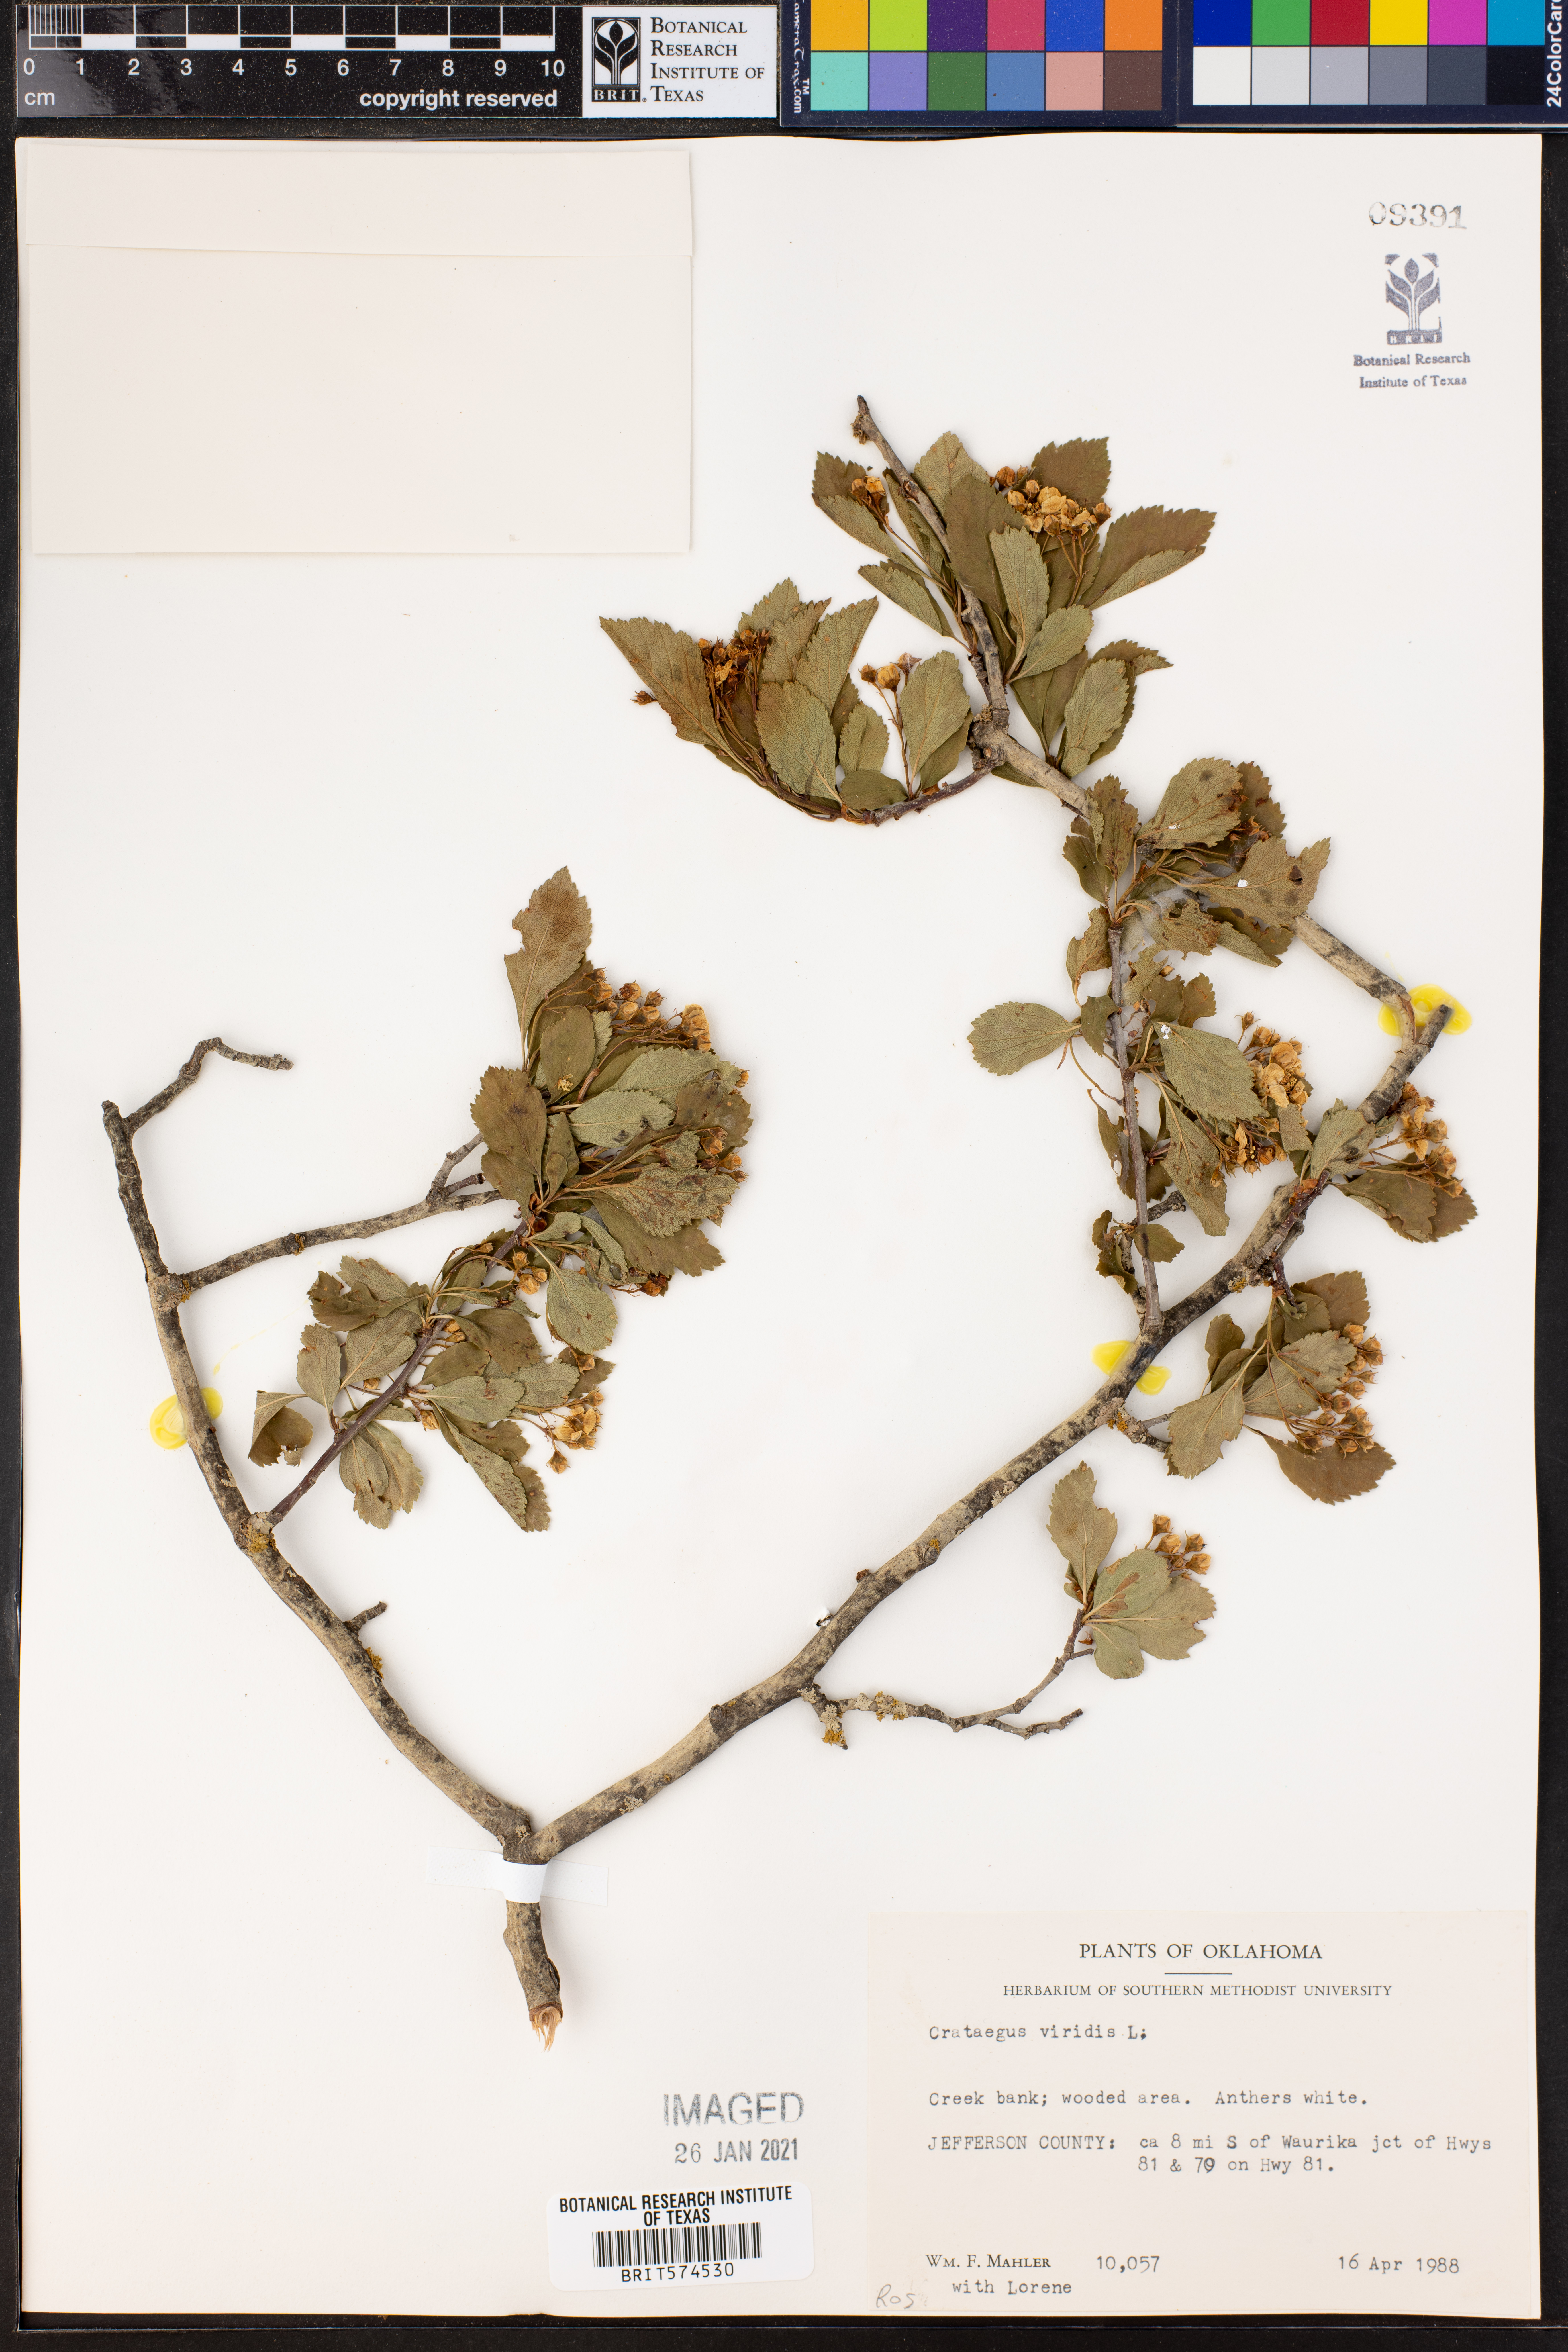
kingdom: Plantae
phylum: Tracheophyta
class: Magnoliopsida
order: Rosales
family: Rosaceae
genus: Crataegus
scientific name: Crataegus viridis
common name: Southernthorn
